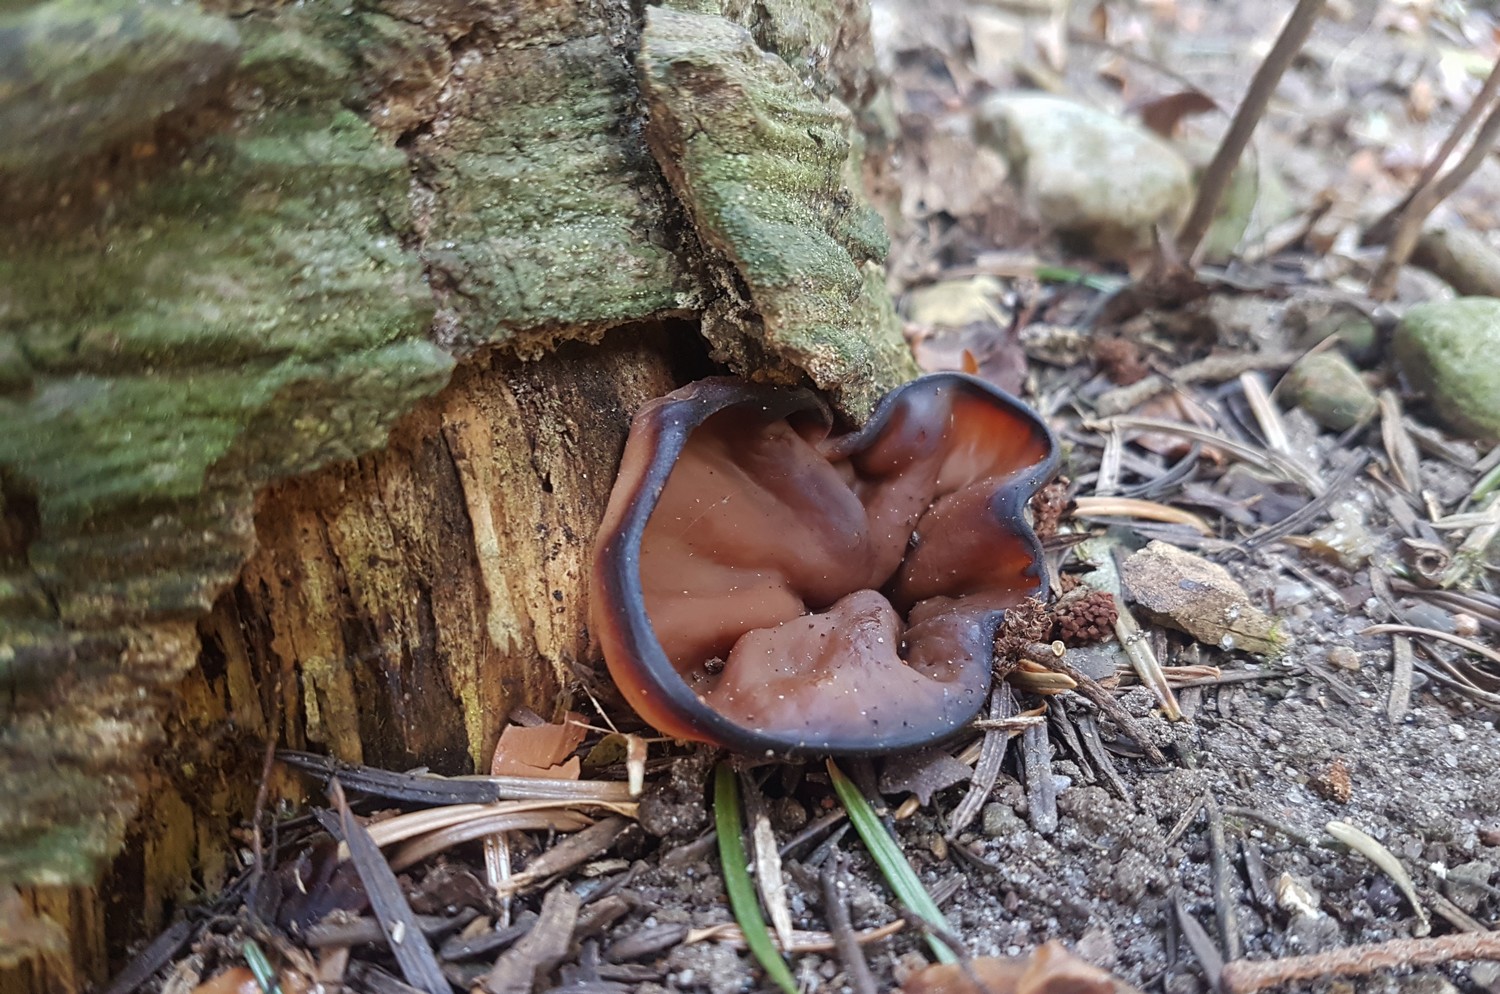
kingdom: Fungi
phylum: Ascomycota
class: Pezizomycetes
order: Pezizales
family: Discinaceae
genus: Discina
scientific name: Discina ancilis
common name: udbredt stenmorkel
